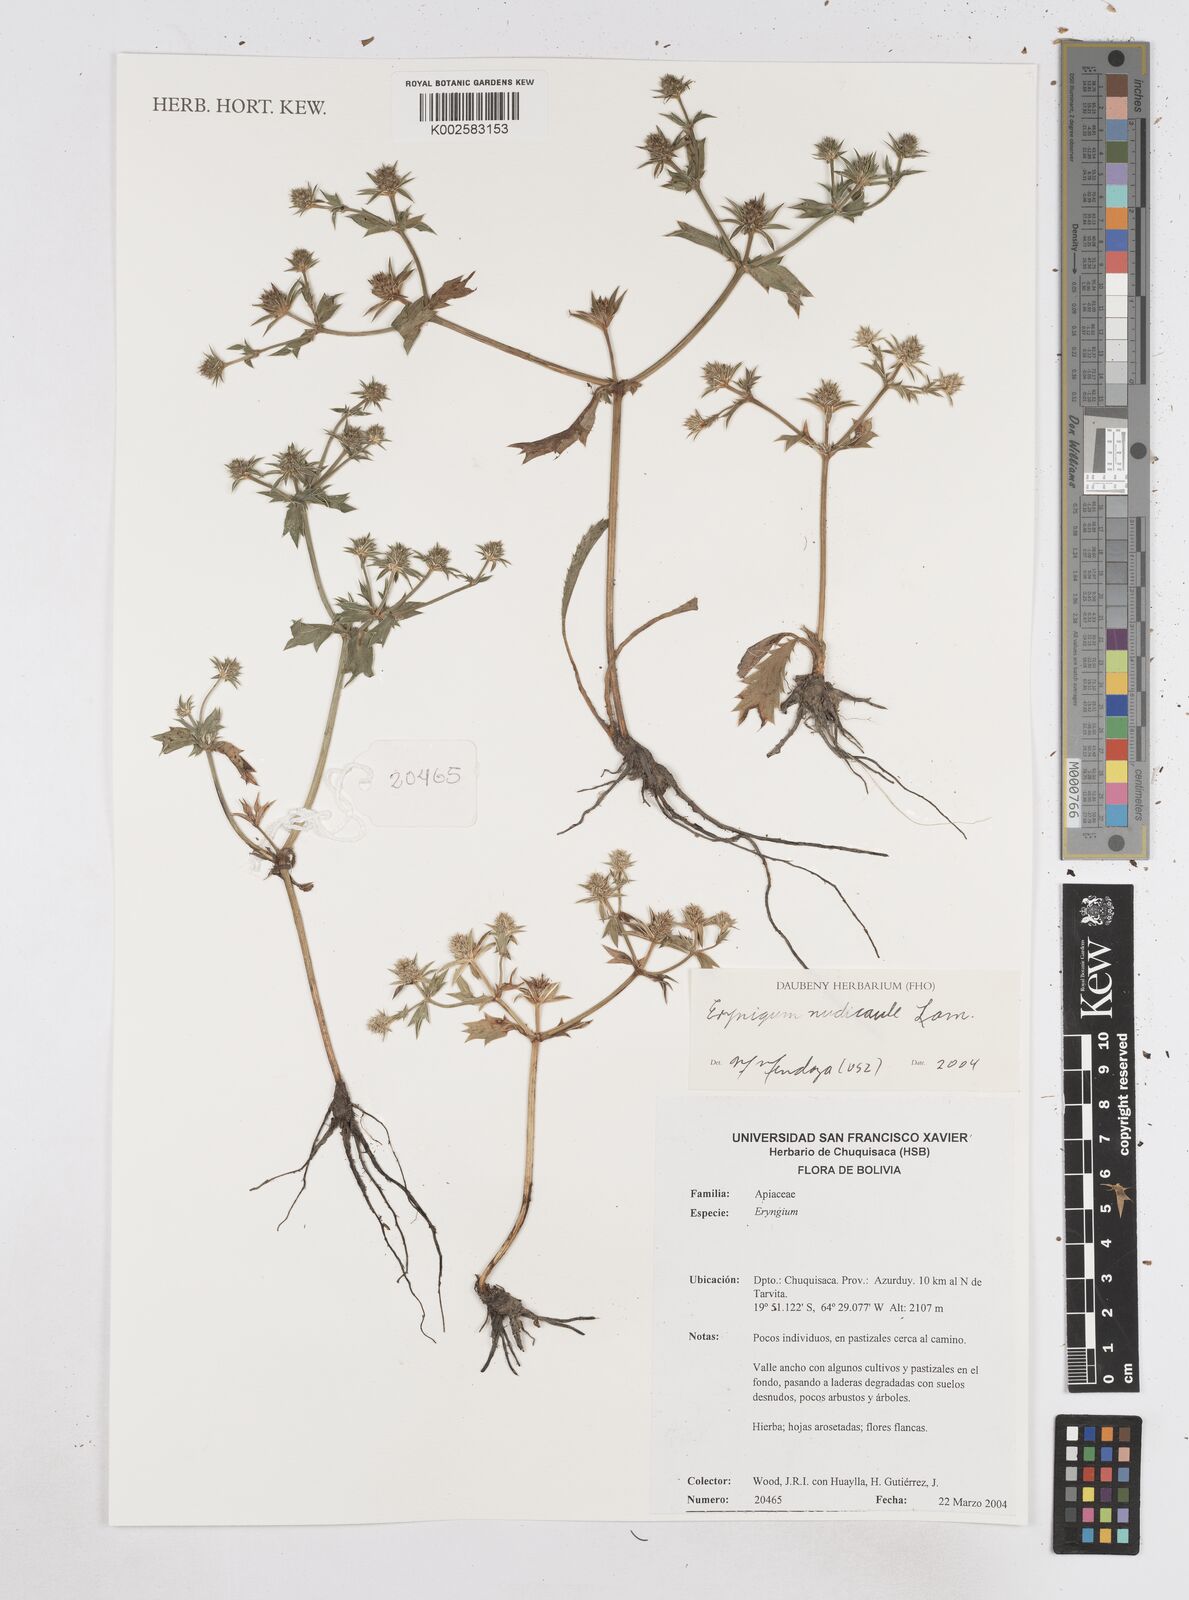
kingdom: Plantae
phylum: Tracheophyta
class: Magnoliopsida
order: Apiales
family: Apiaceae
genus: Eryngium
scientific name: Eryngium nudicaule
